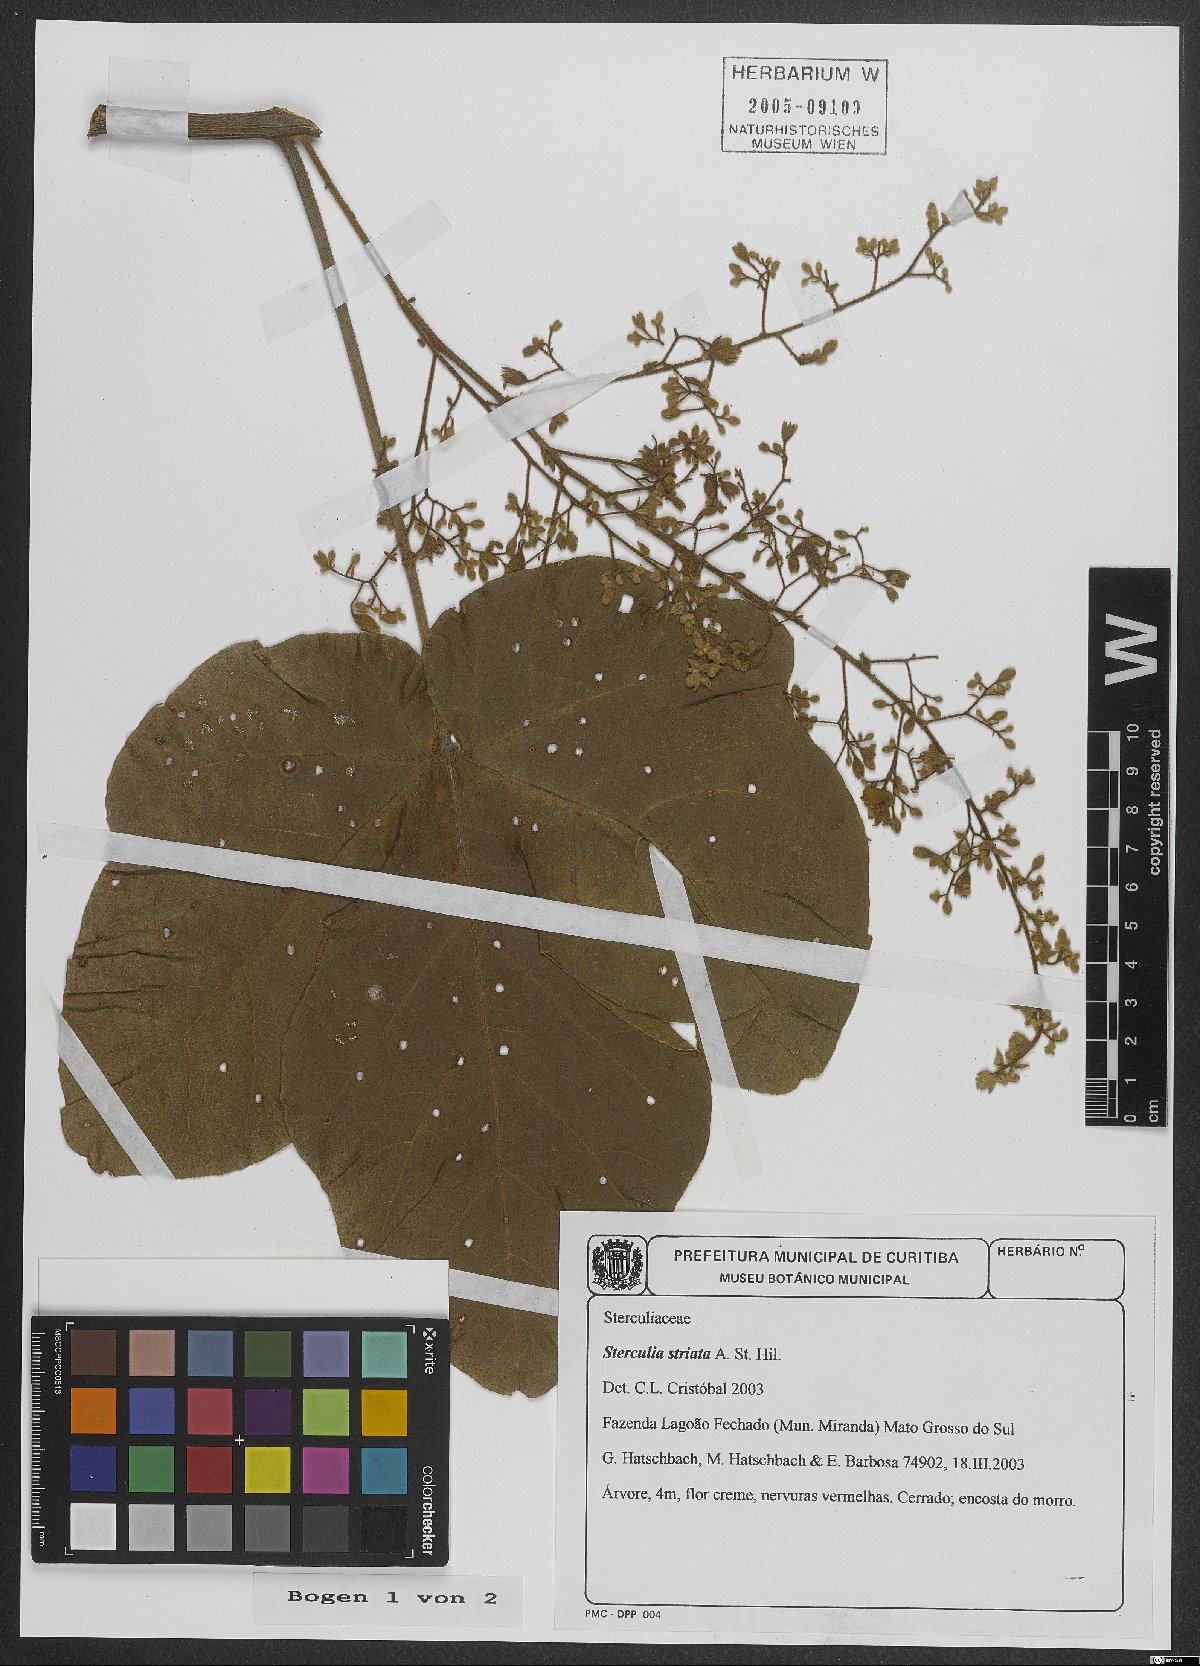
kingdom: Plantae
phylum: Tracheophyta
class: Magnoliopsida
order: Malvales
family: Malvaceae
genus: Sterculia
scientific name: Sterculia striata
